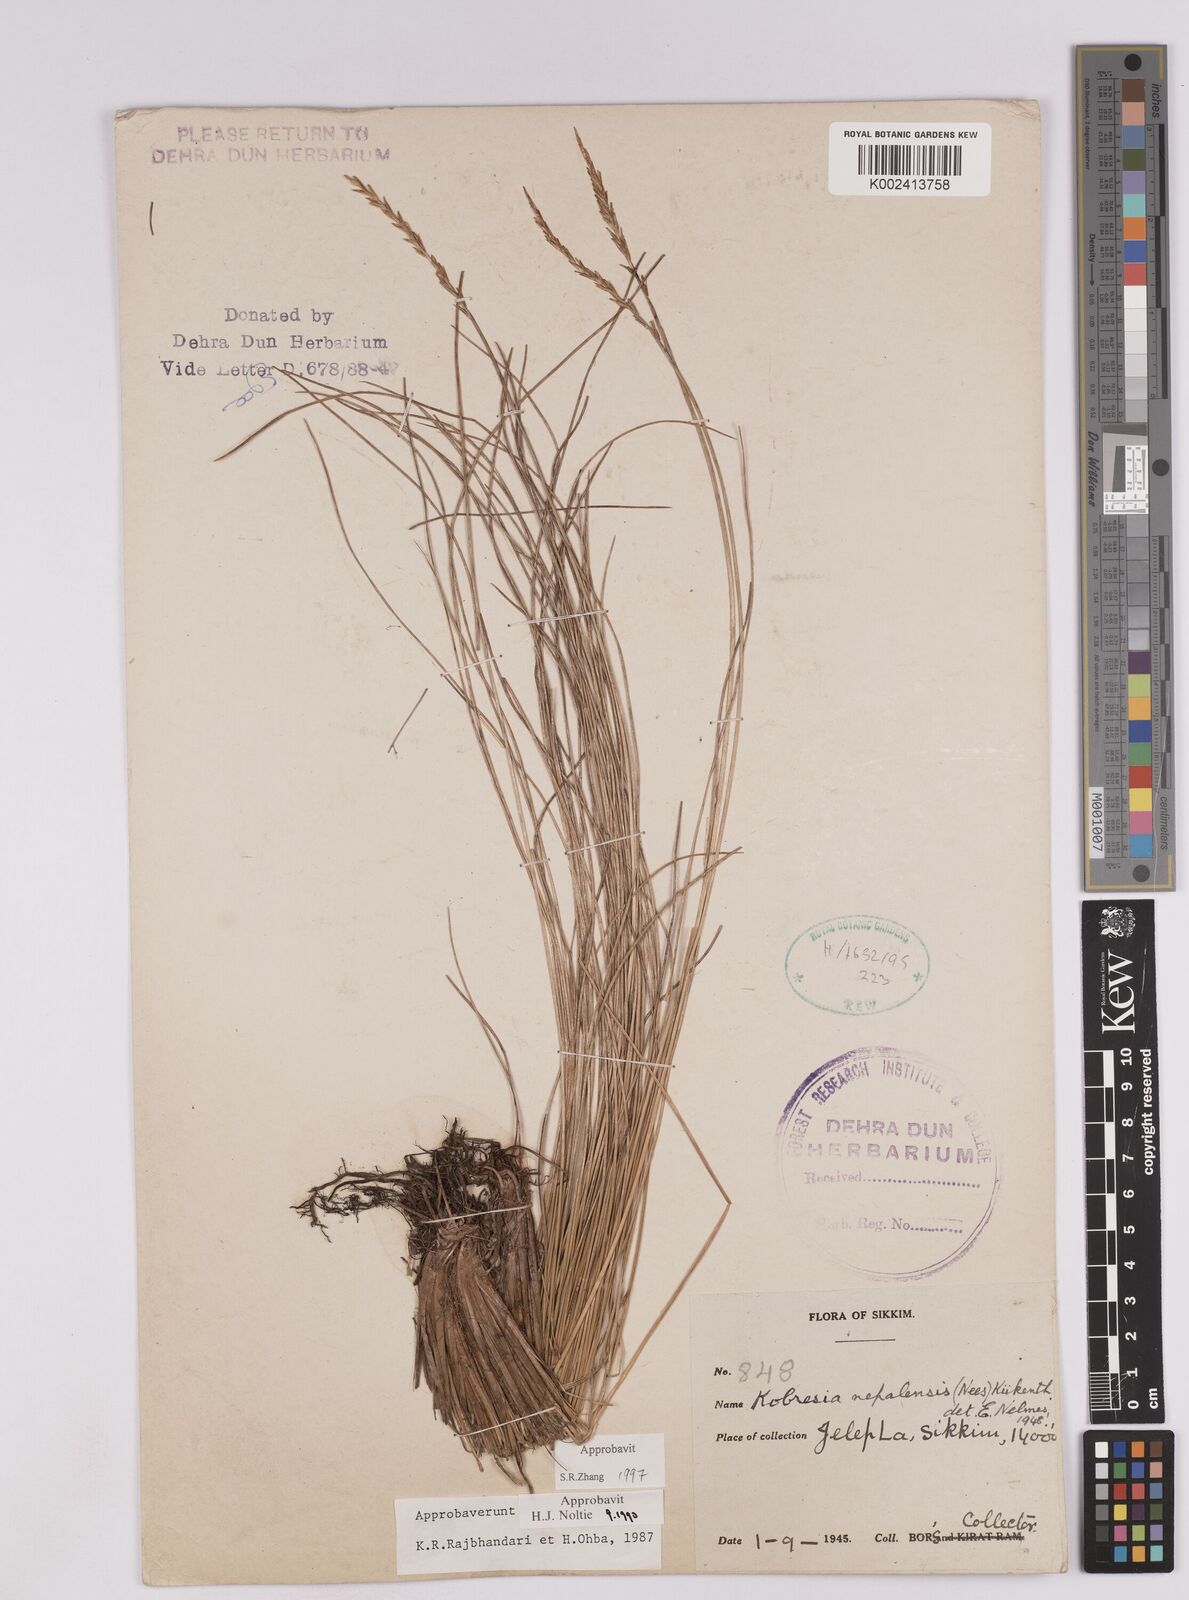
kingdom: Plantae
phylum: Tracheophyta
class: Liliopsida
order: Poales
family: Cyperaceae
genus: Carex
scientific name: Carex unciniiformis
